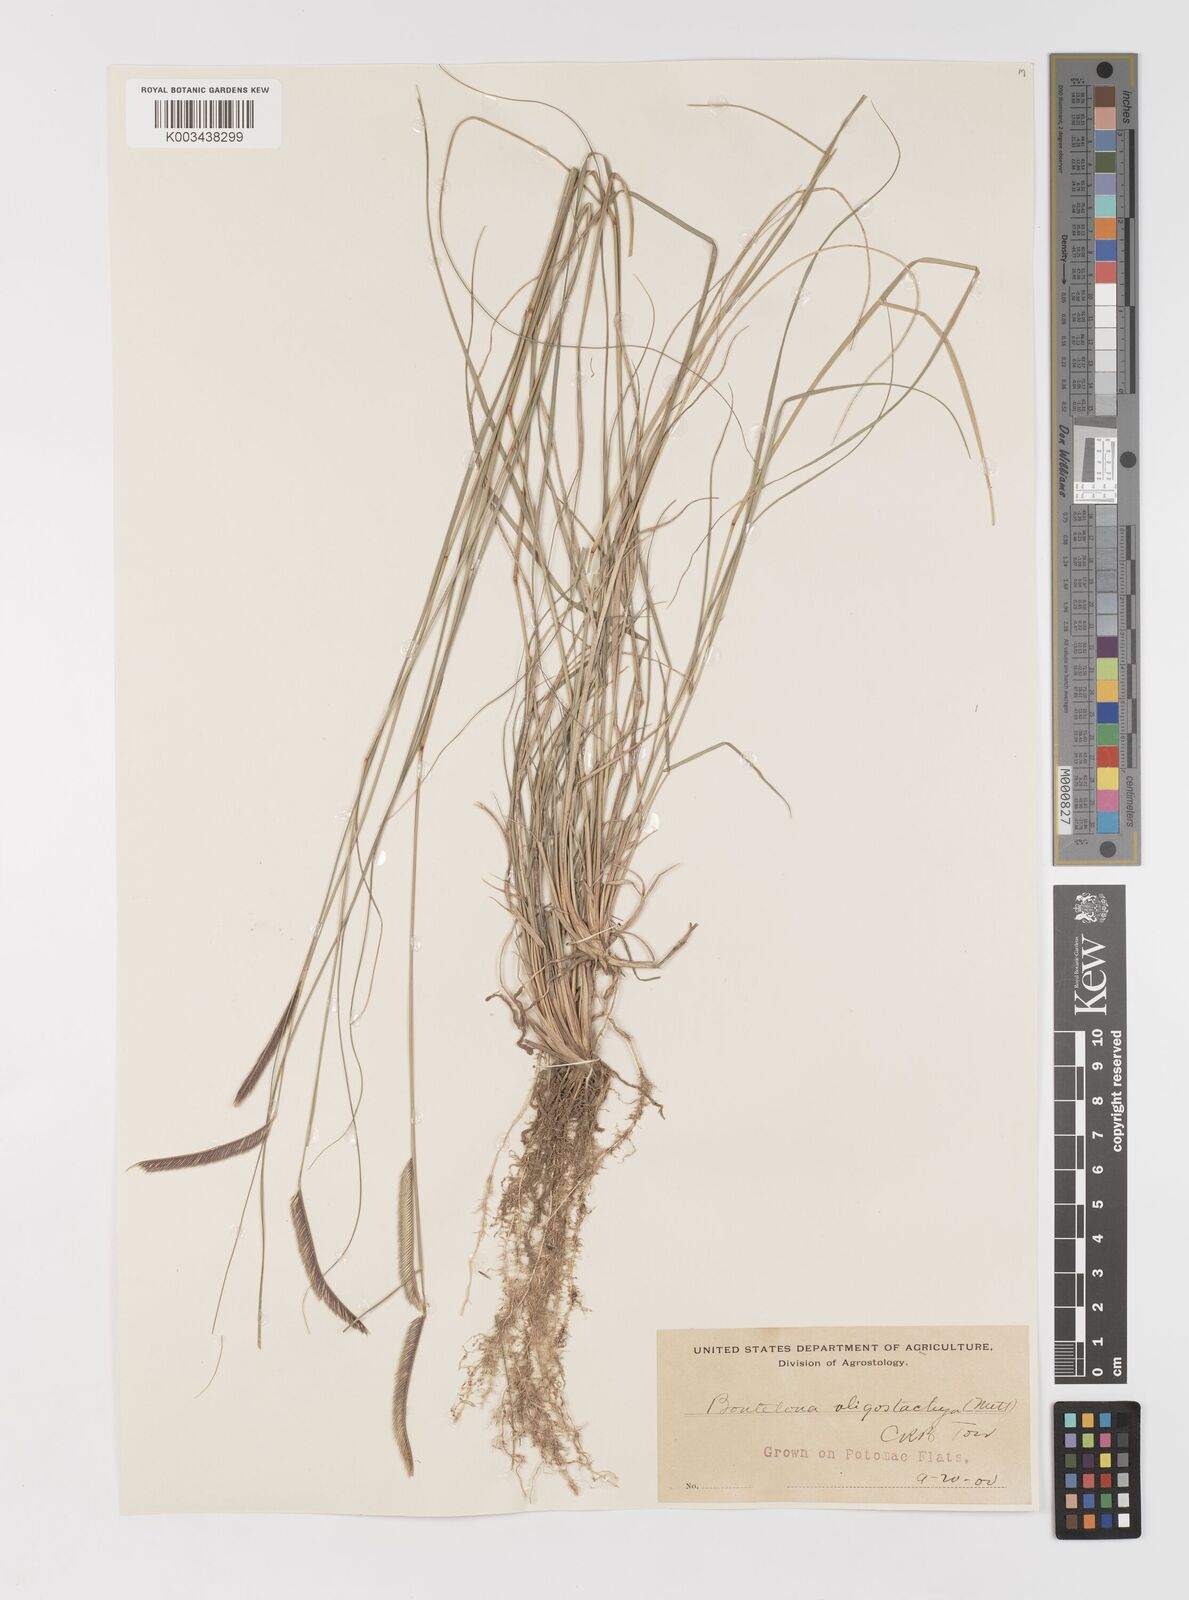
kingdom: Plantae
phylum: Tracheophyta
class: Liliopsida
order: Poales
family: Poaceae
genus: Bouteloua
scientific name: Bouteloua
